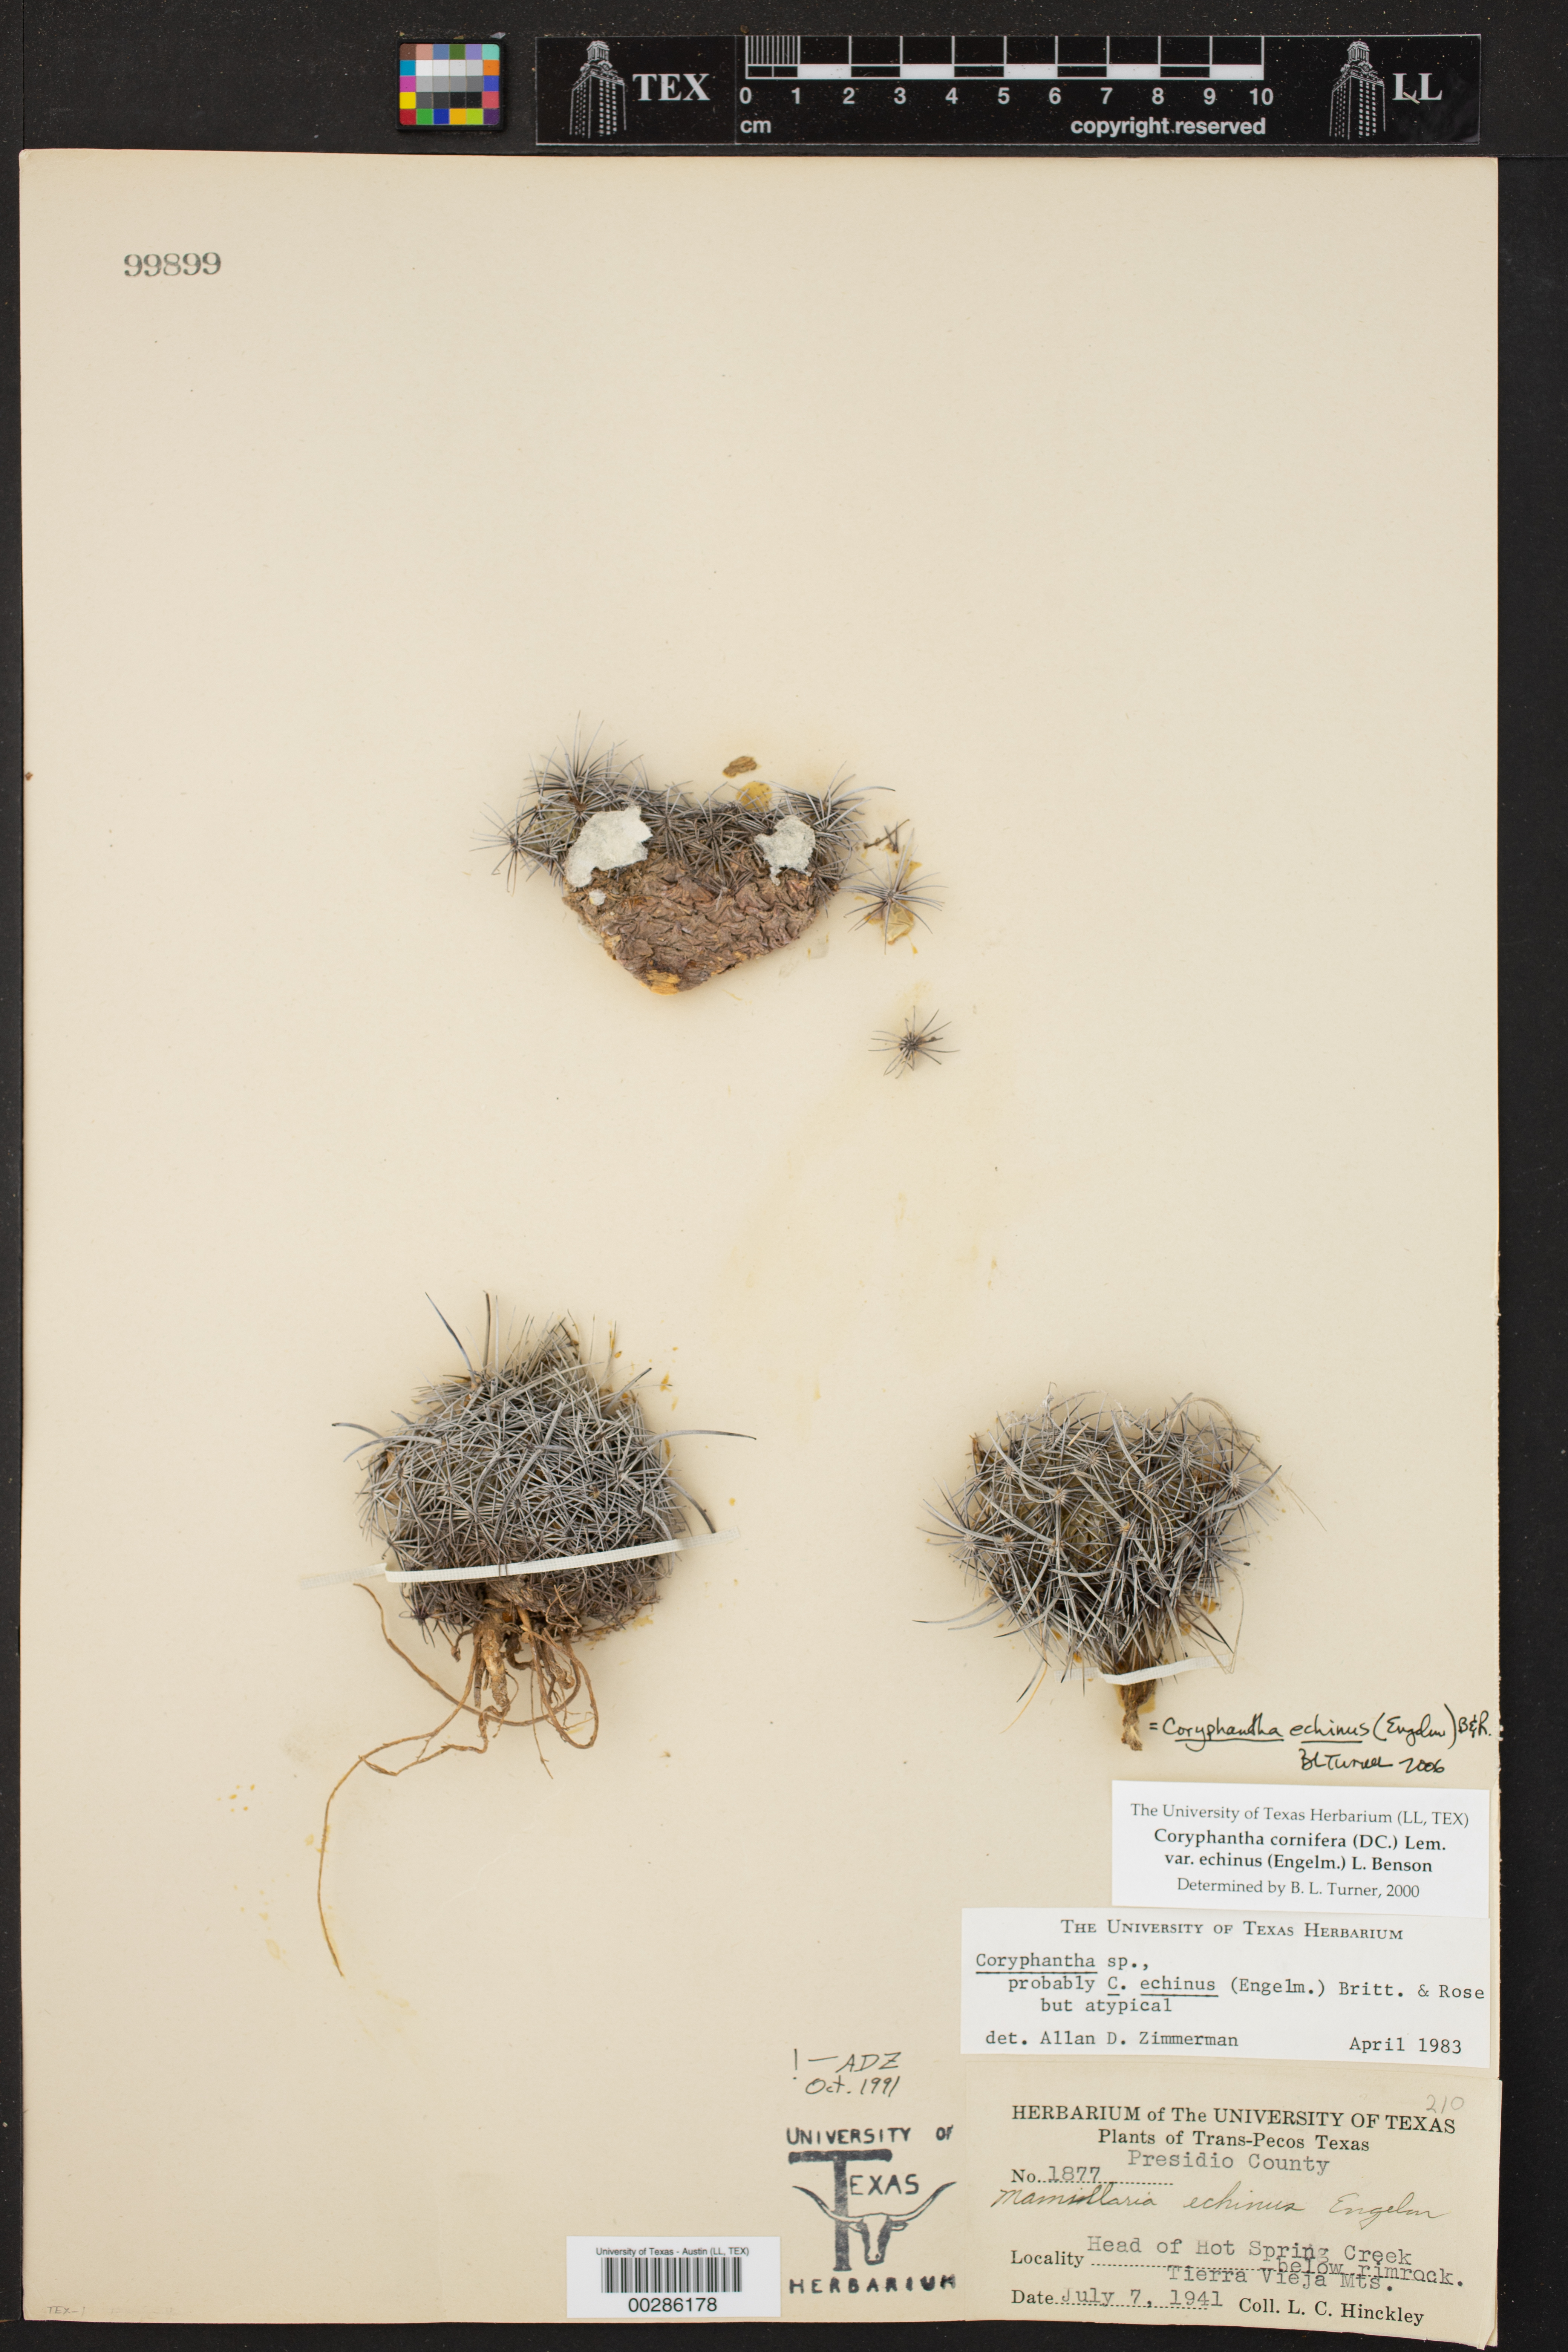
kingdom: Plantae
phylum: Tracheophyta
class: Magnoliopsida
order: Caryophyllales
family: Cactaceae
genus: Coryphantha
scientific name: Coryphantha echinus
